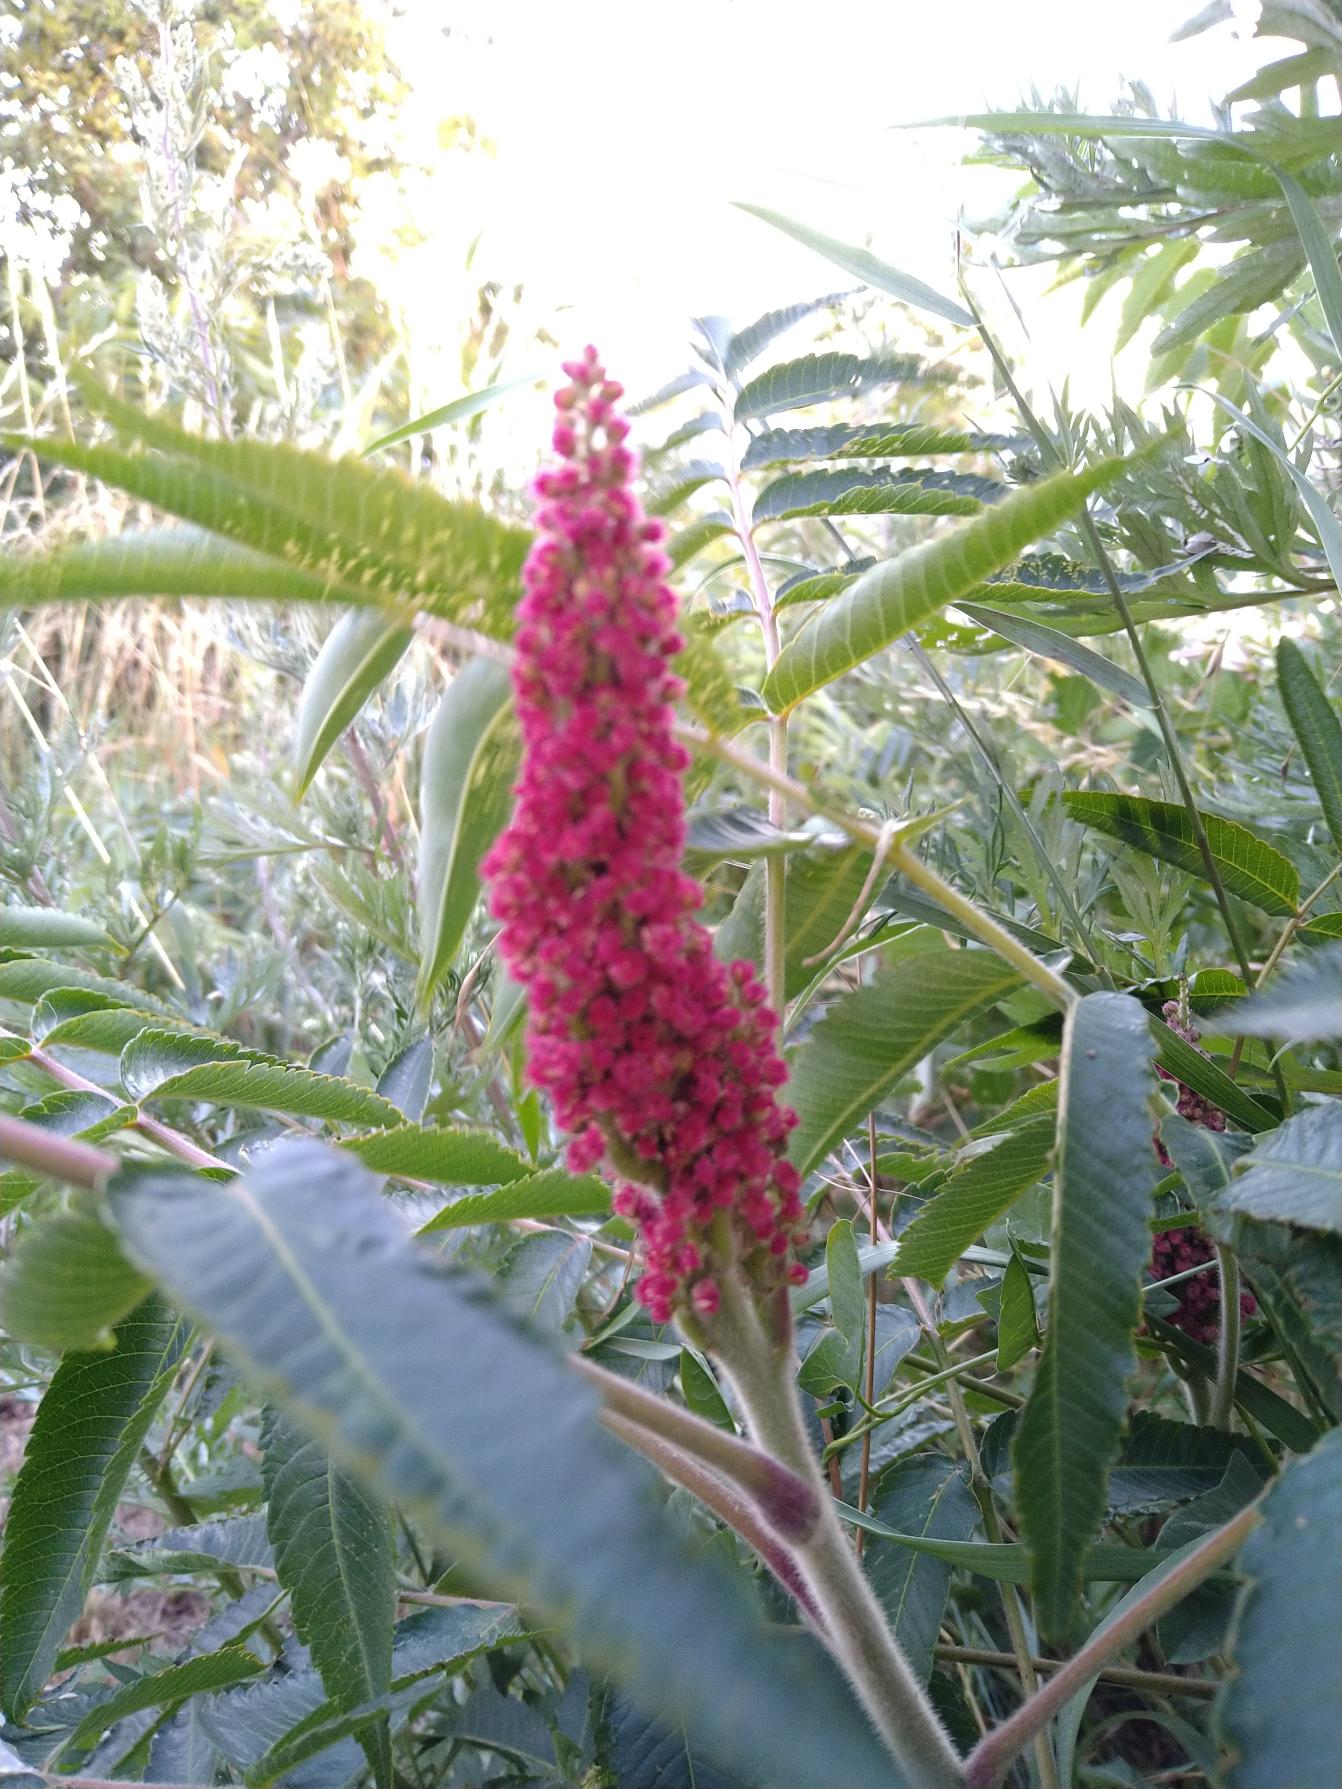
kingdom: Plantae
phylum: Tracheophyta
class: Magnoliopsida
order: Sapindales
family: Anacardiaceae
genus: Rhus
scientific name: Rhus typhina
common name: Hjortetaktræ
